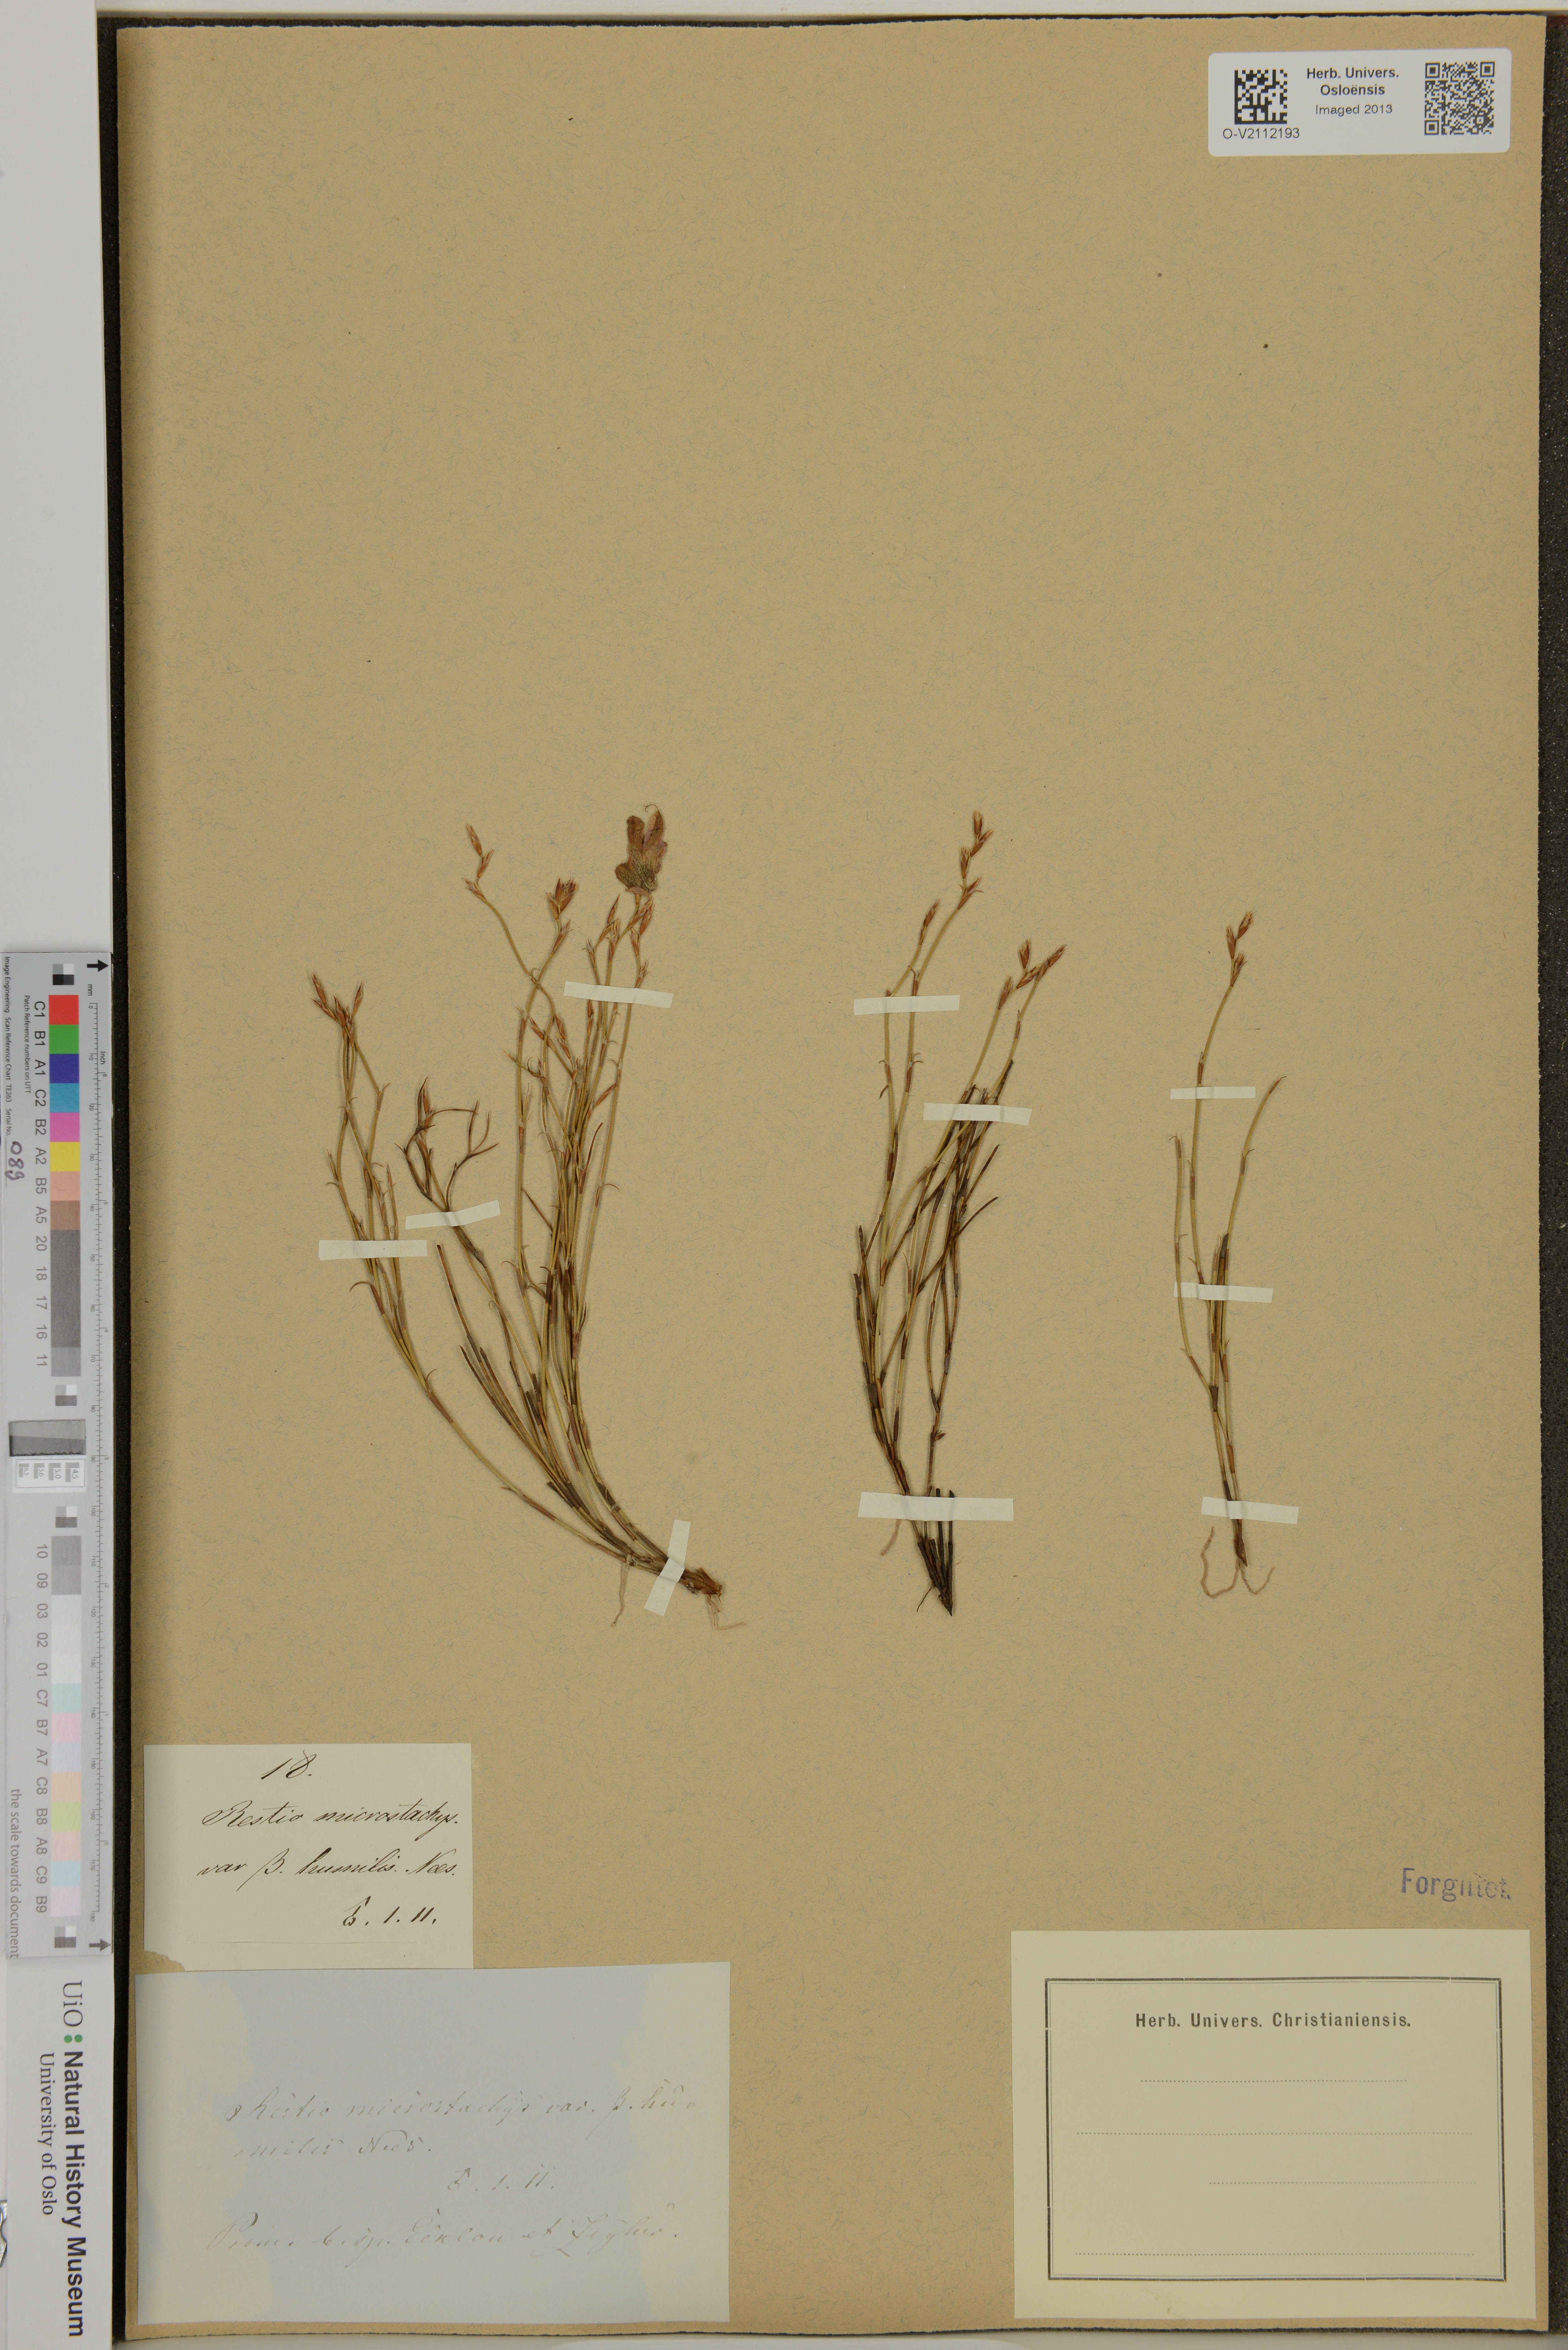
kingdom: Plantae
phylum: Tracheophyta
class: Liliopsida
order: Poales
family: Restionaceae
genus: Restio
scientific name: Restio gaudichaudianus
